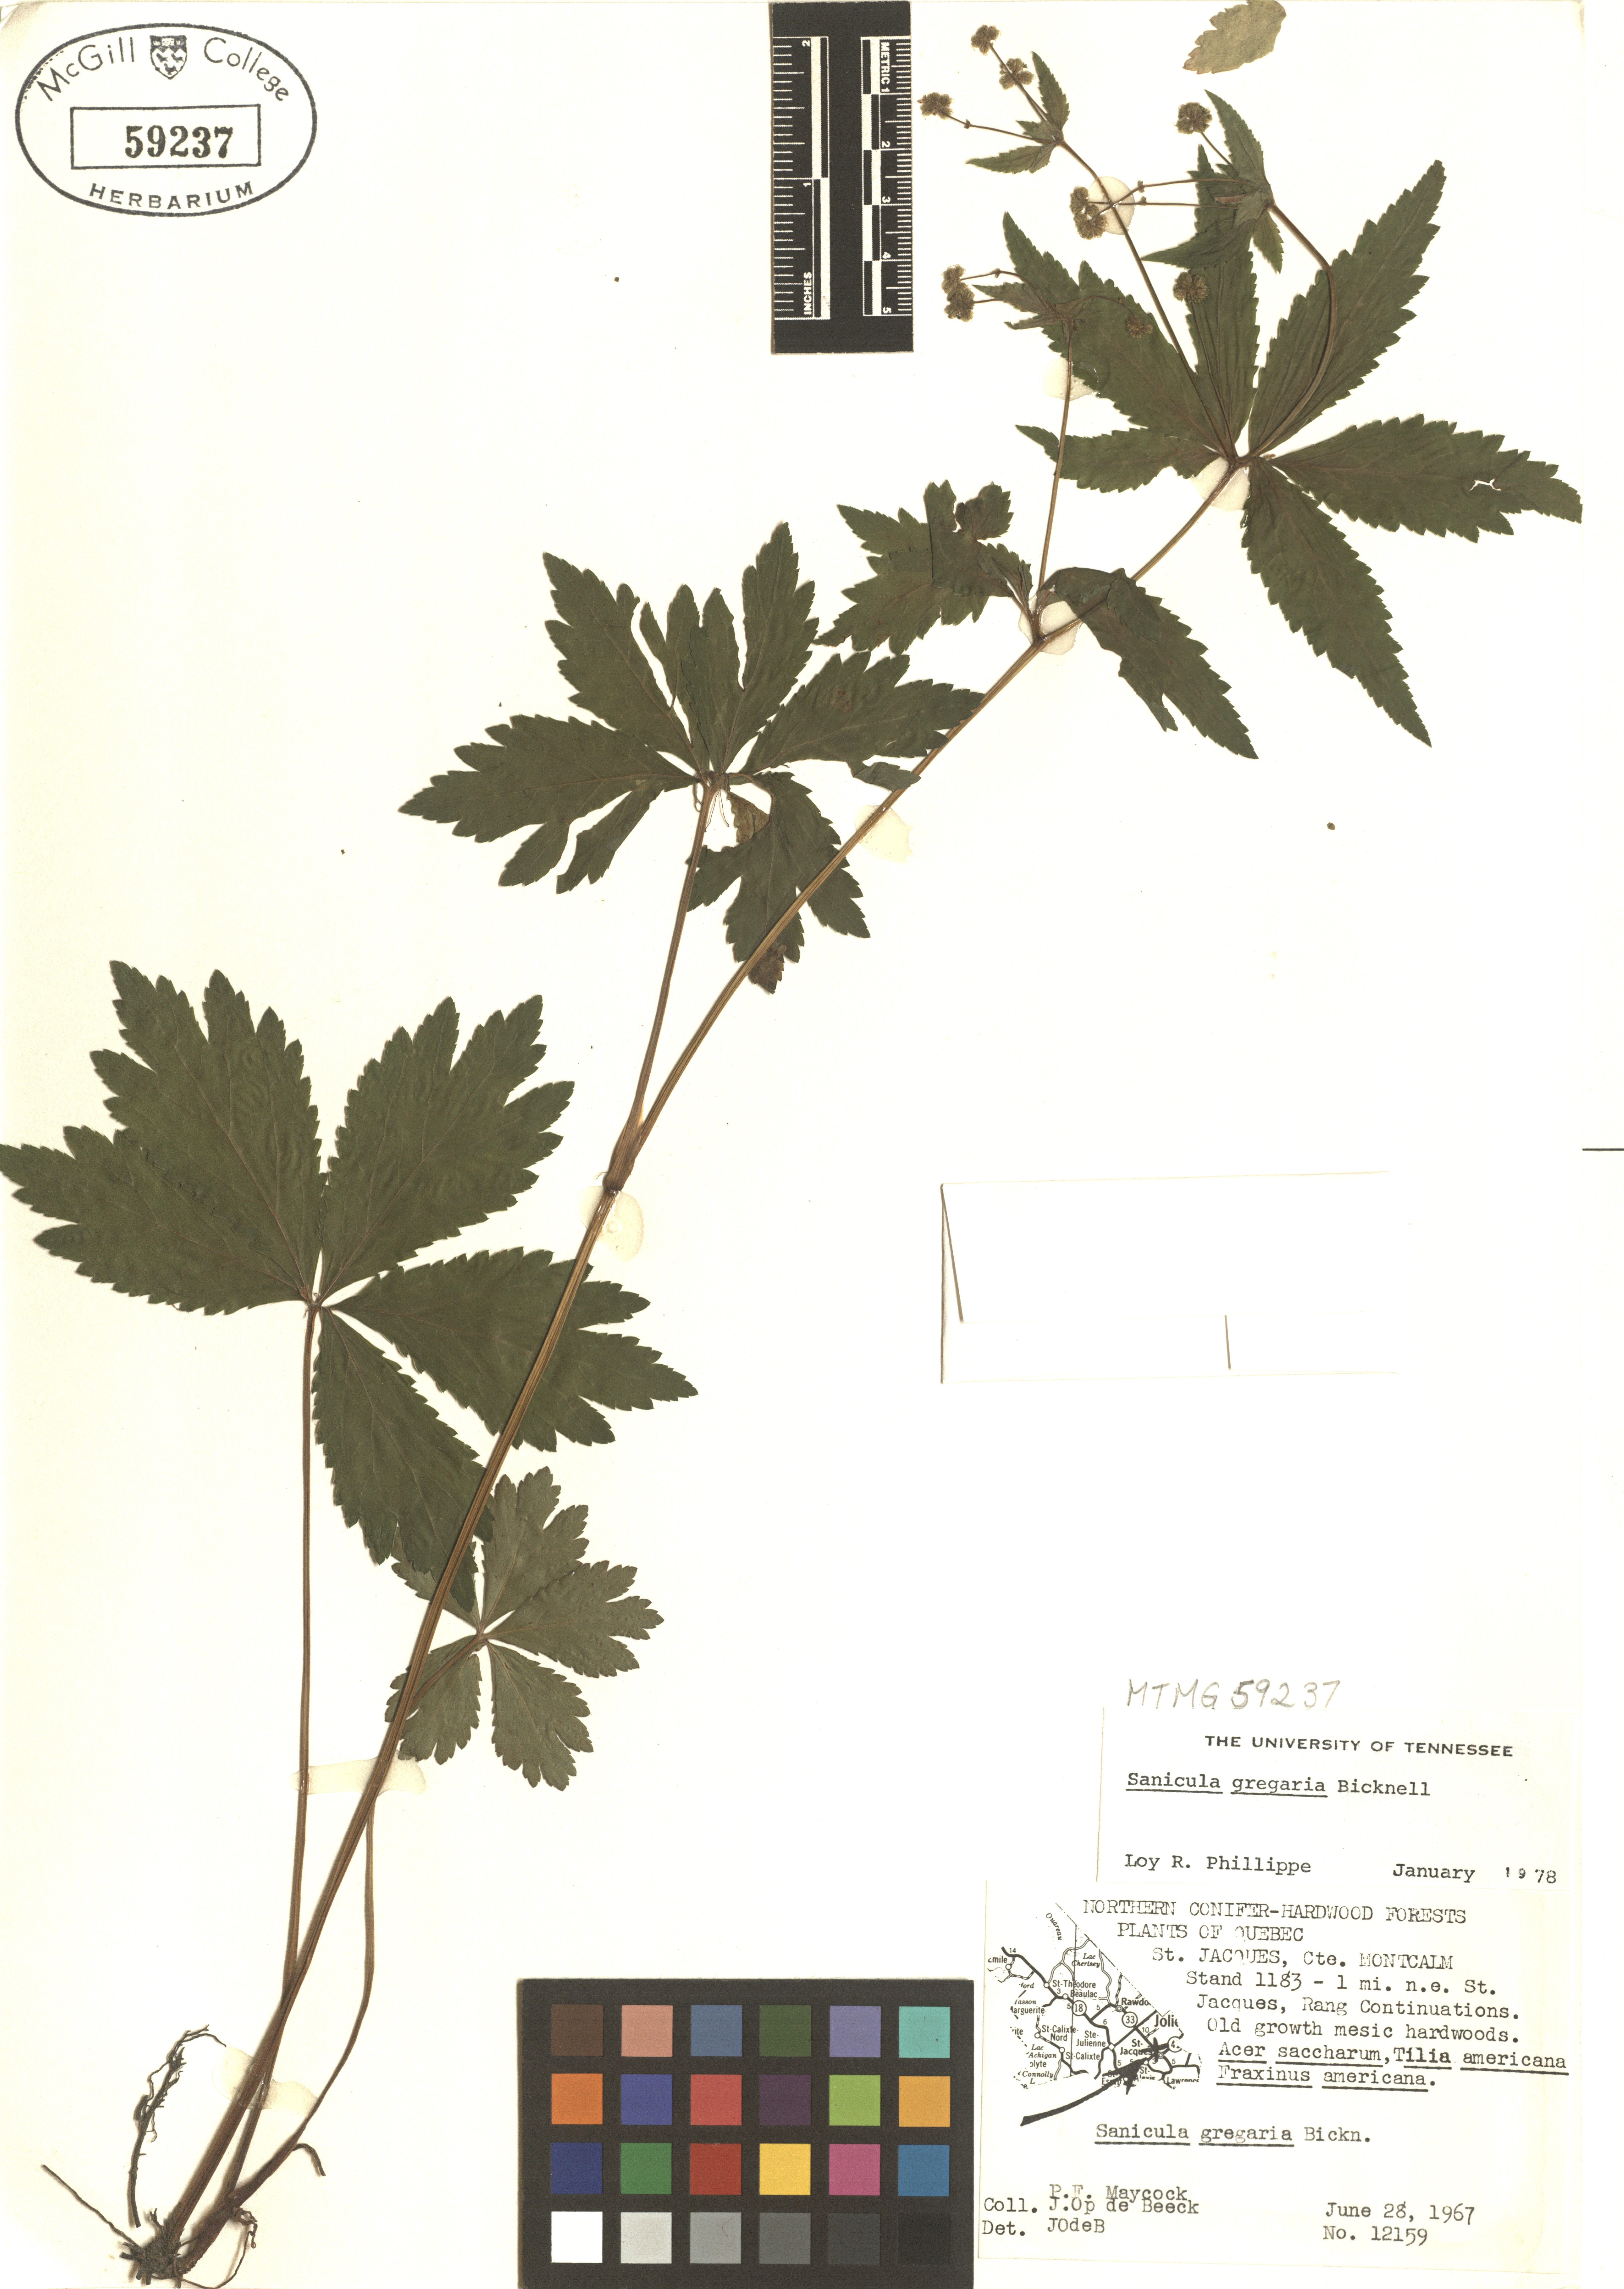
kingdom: Plantae
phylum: Tracheophyta
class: Magnoliopsida
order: Apiales
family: Apiaceae
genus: Sanicula
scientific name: Sanicula odorata
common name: Cluster sanicle
